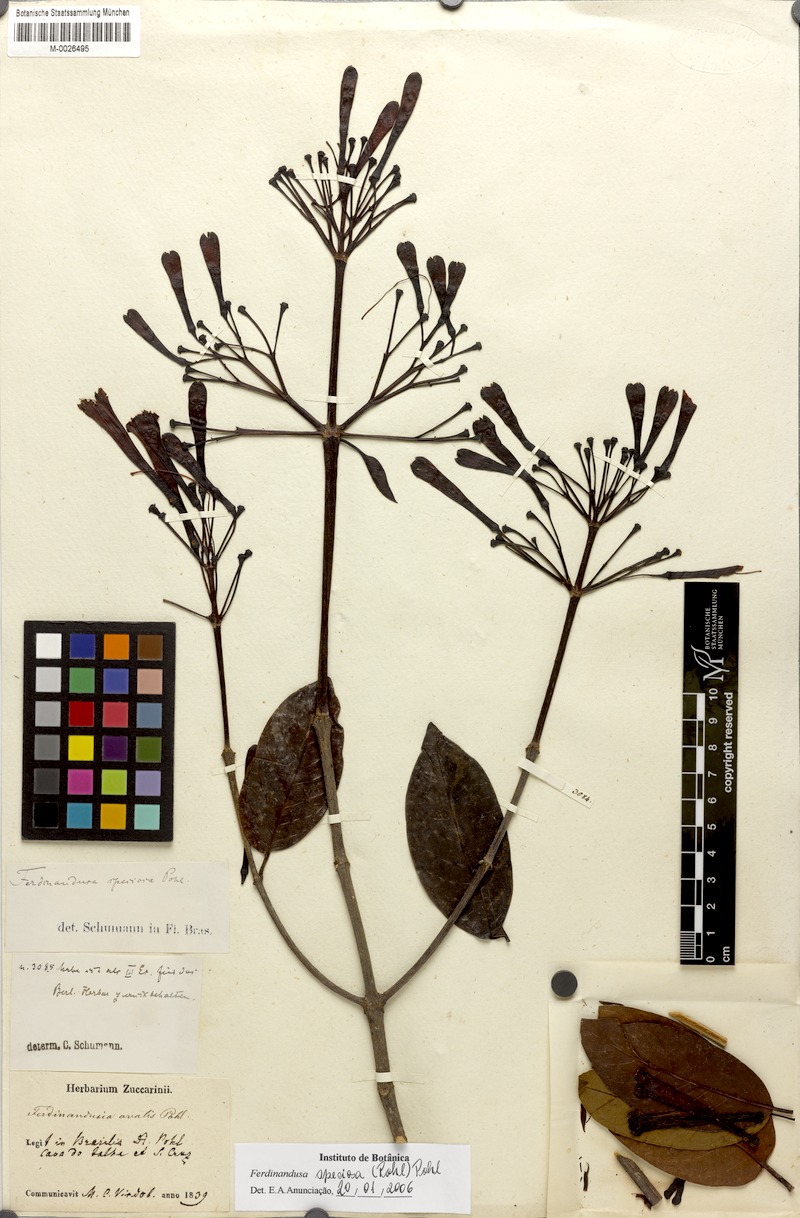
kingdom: Plantae
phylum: Tracheophyta
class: Magnoliopsida
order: Gentianales
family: Rubiaceae
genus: Ferdinandusa
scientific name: Ferdinandusa speciosa
